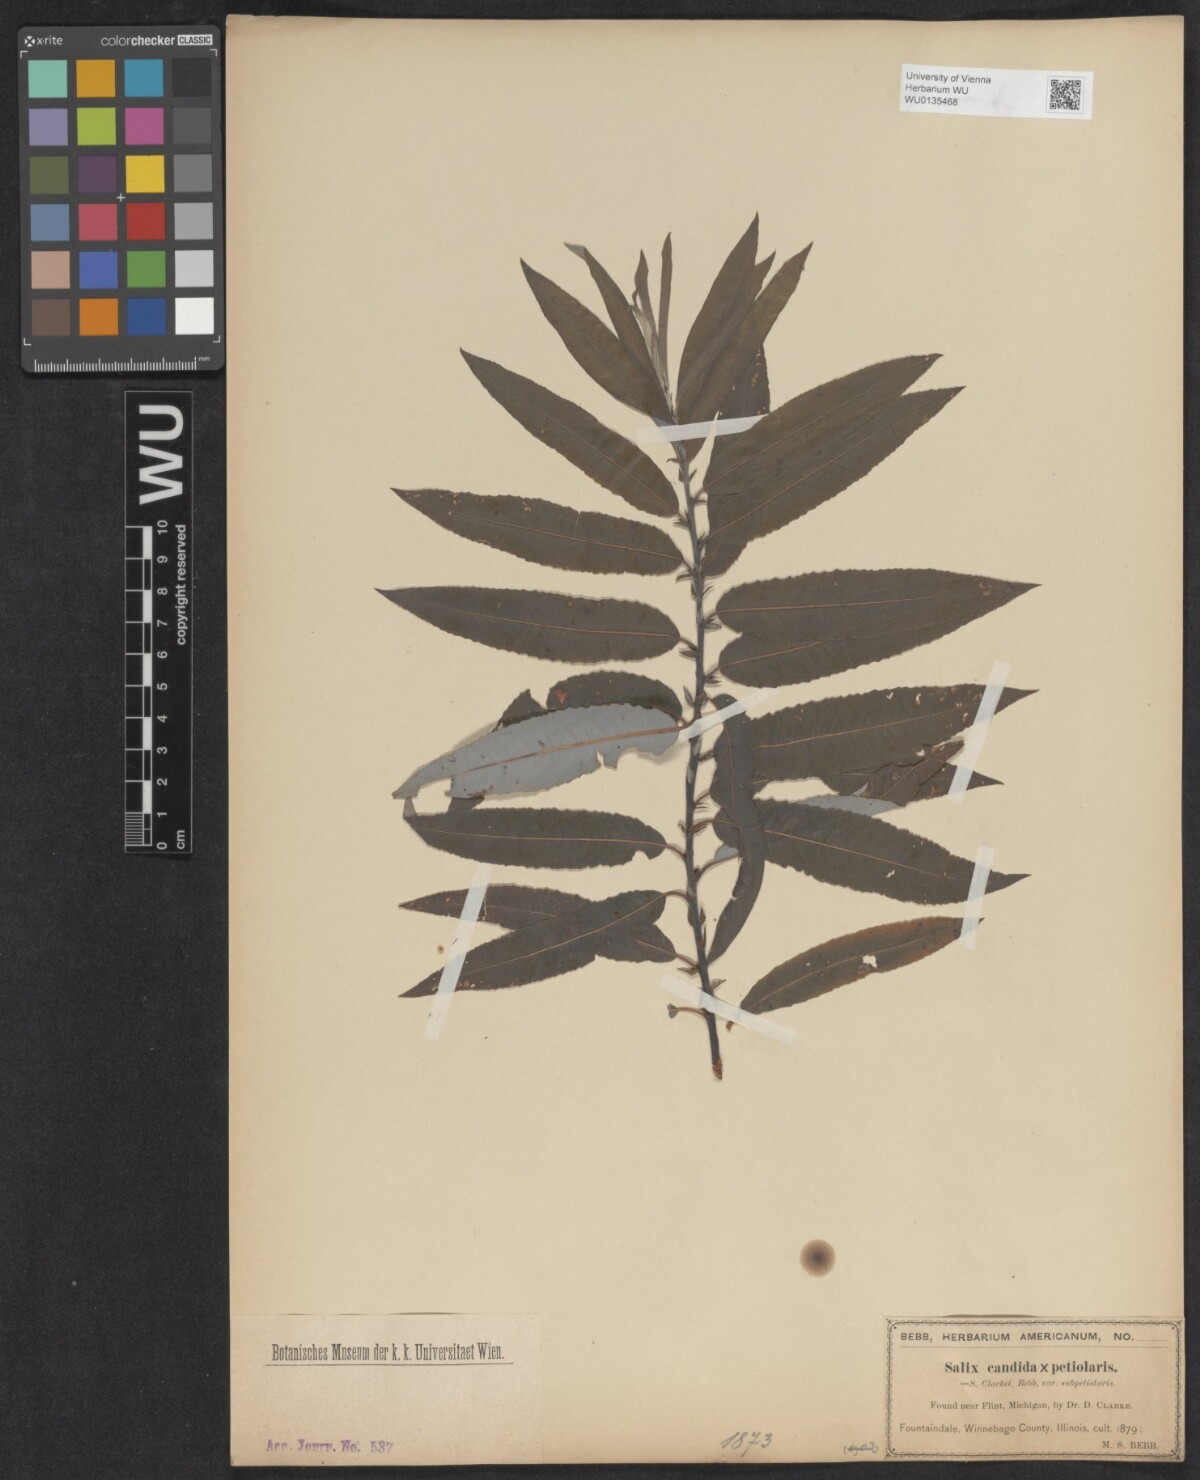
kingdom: Plantae
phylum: Tracheophyta
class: Magnoliopsida
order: Malpighiales
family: Salicaceae
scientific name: Salicaceae
